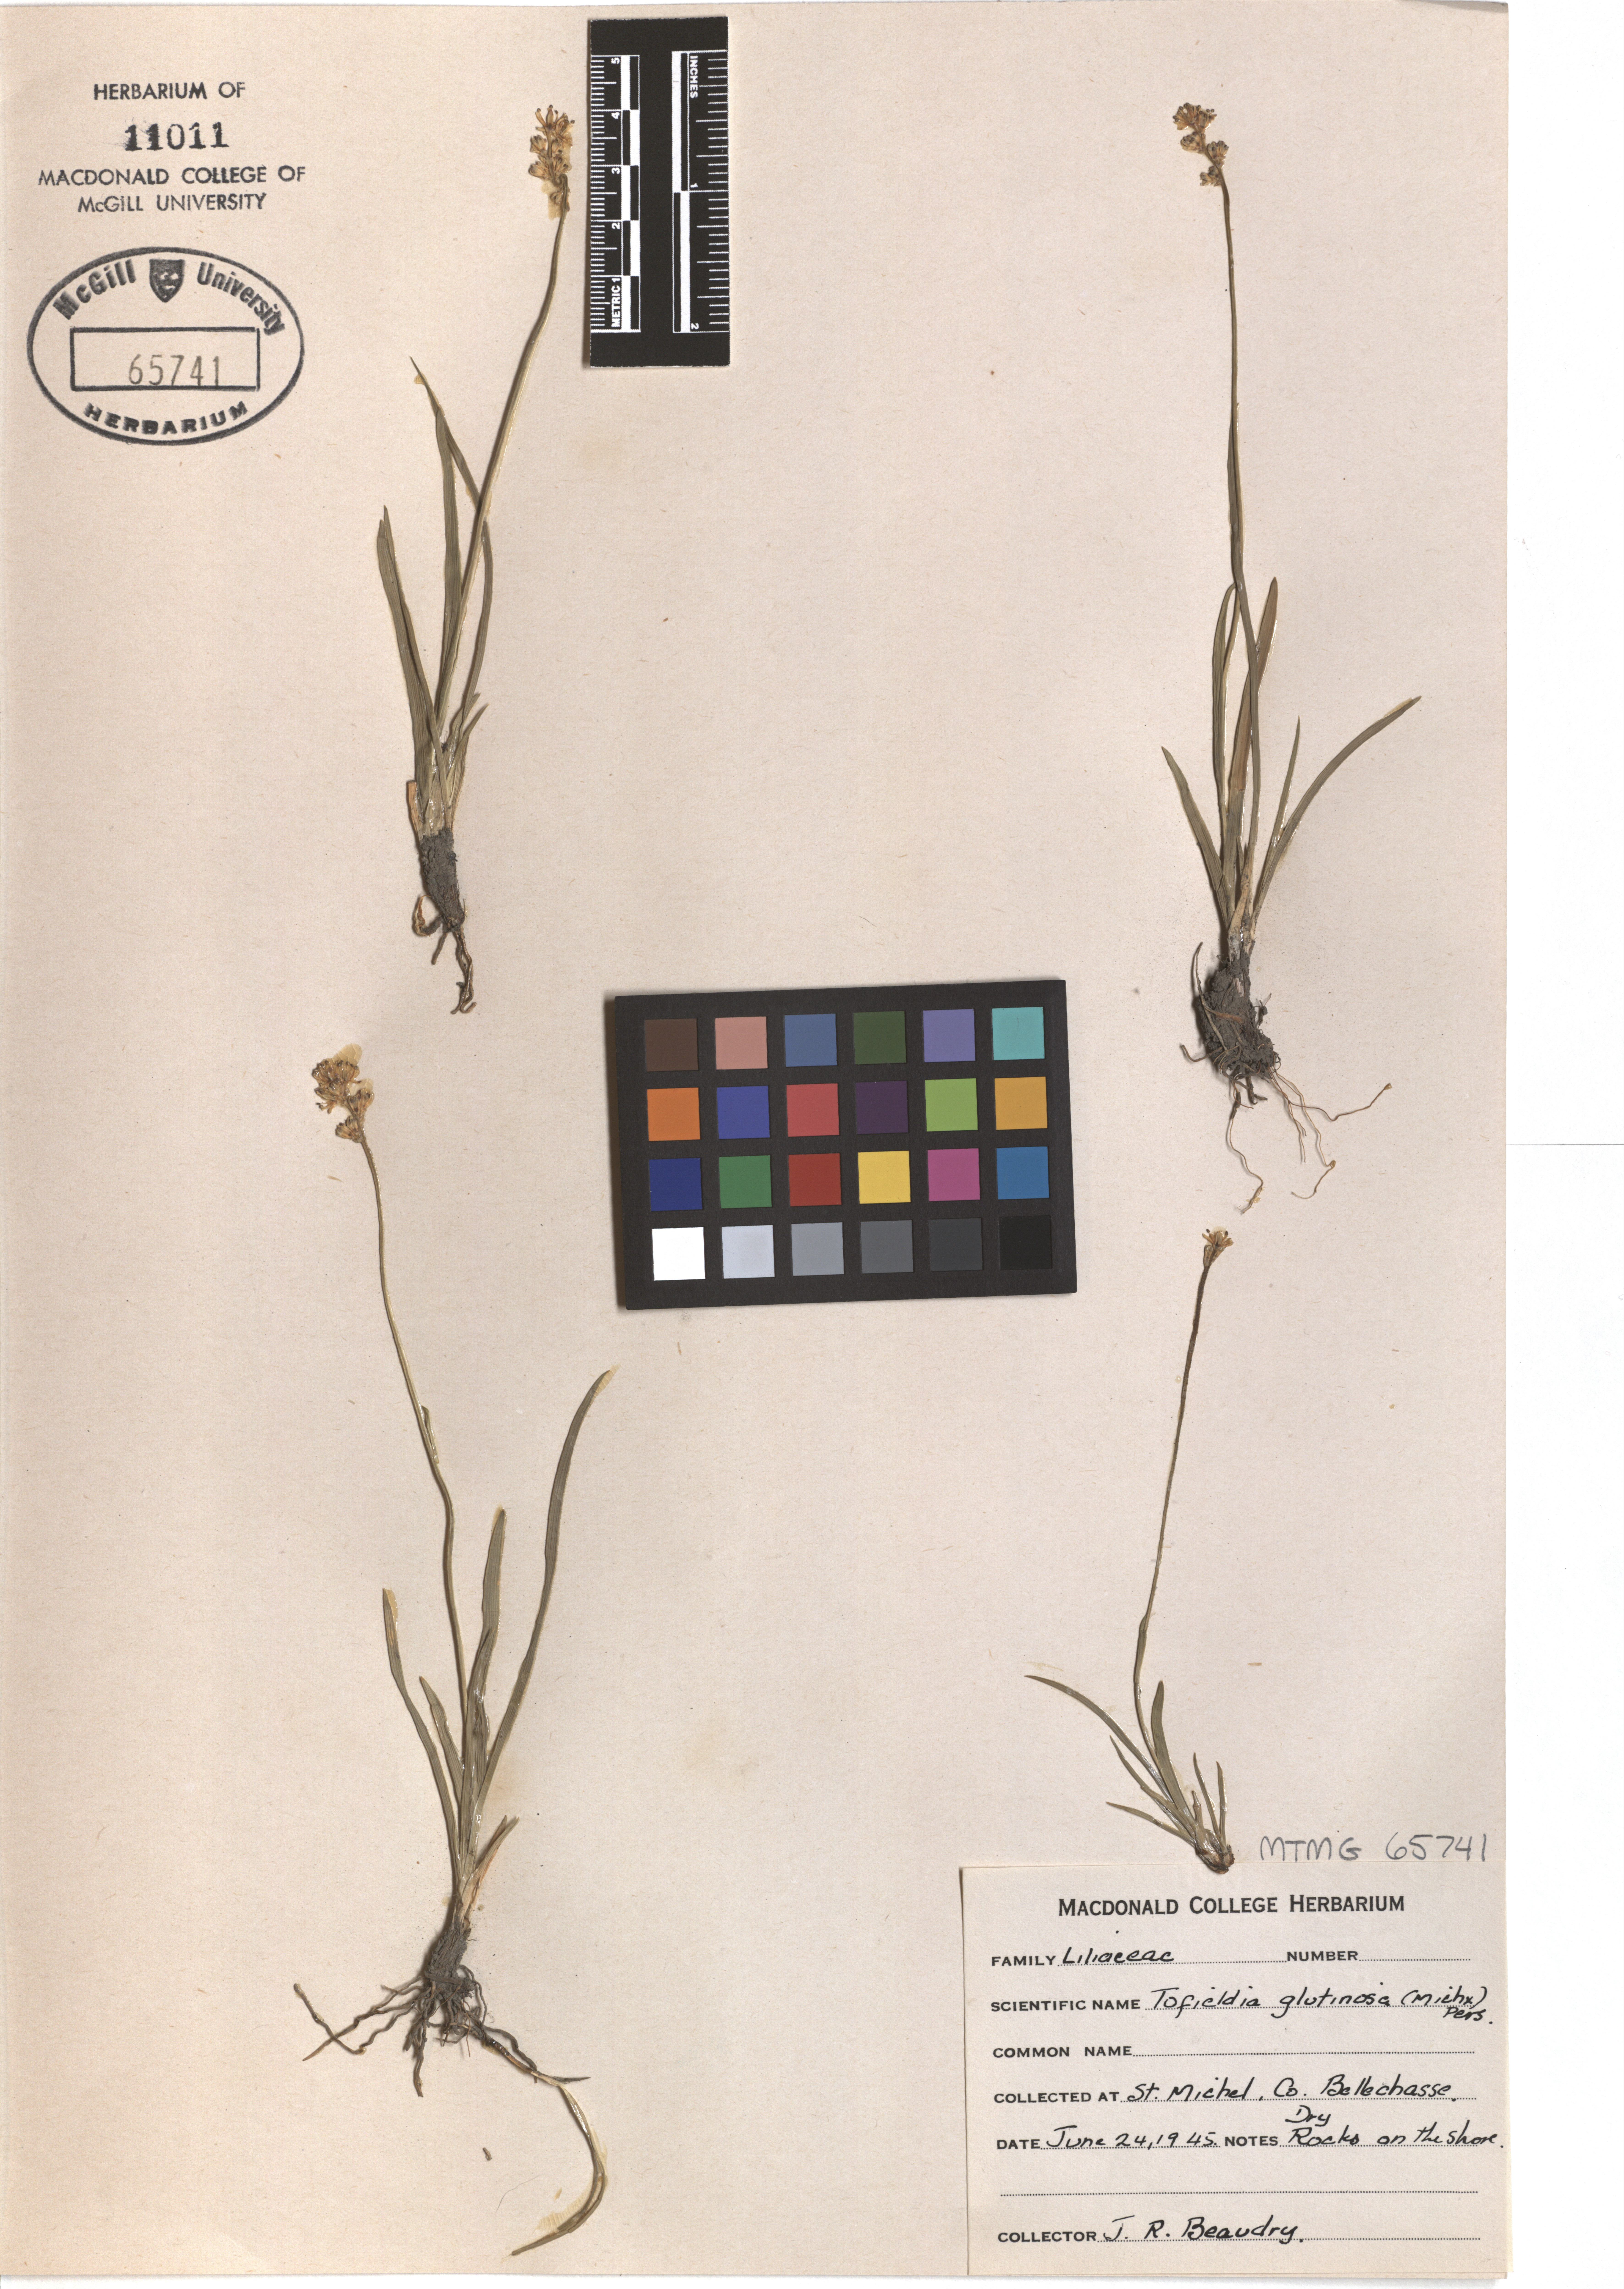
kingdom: Plantae
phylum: Tracheophyta
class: Liliopsida
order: Alismatales
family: Tofieldiaceae
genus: Triantha
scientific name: Triantha glutinosa
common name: Glutinous tofieldia
